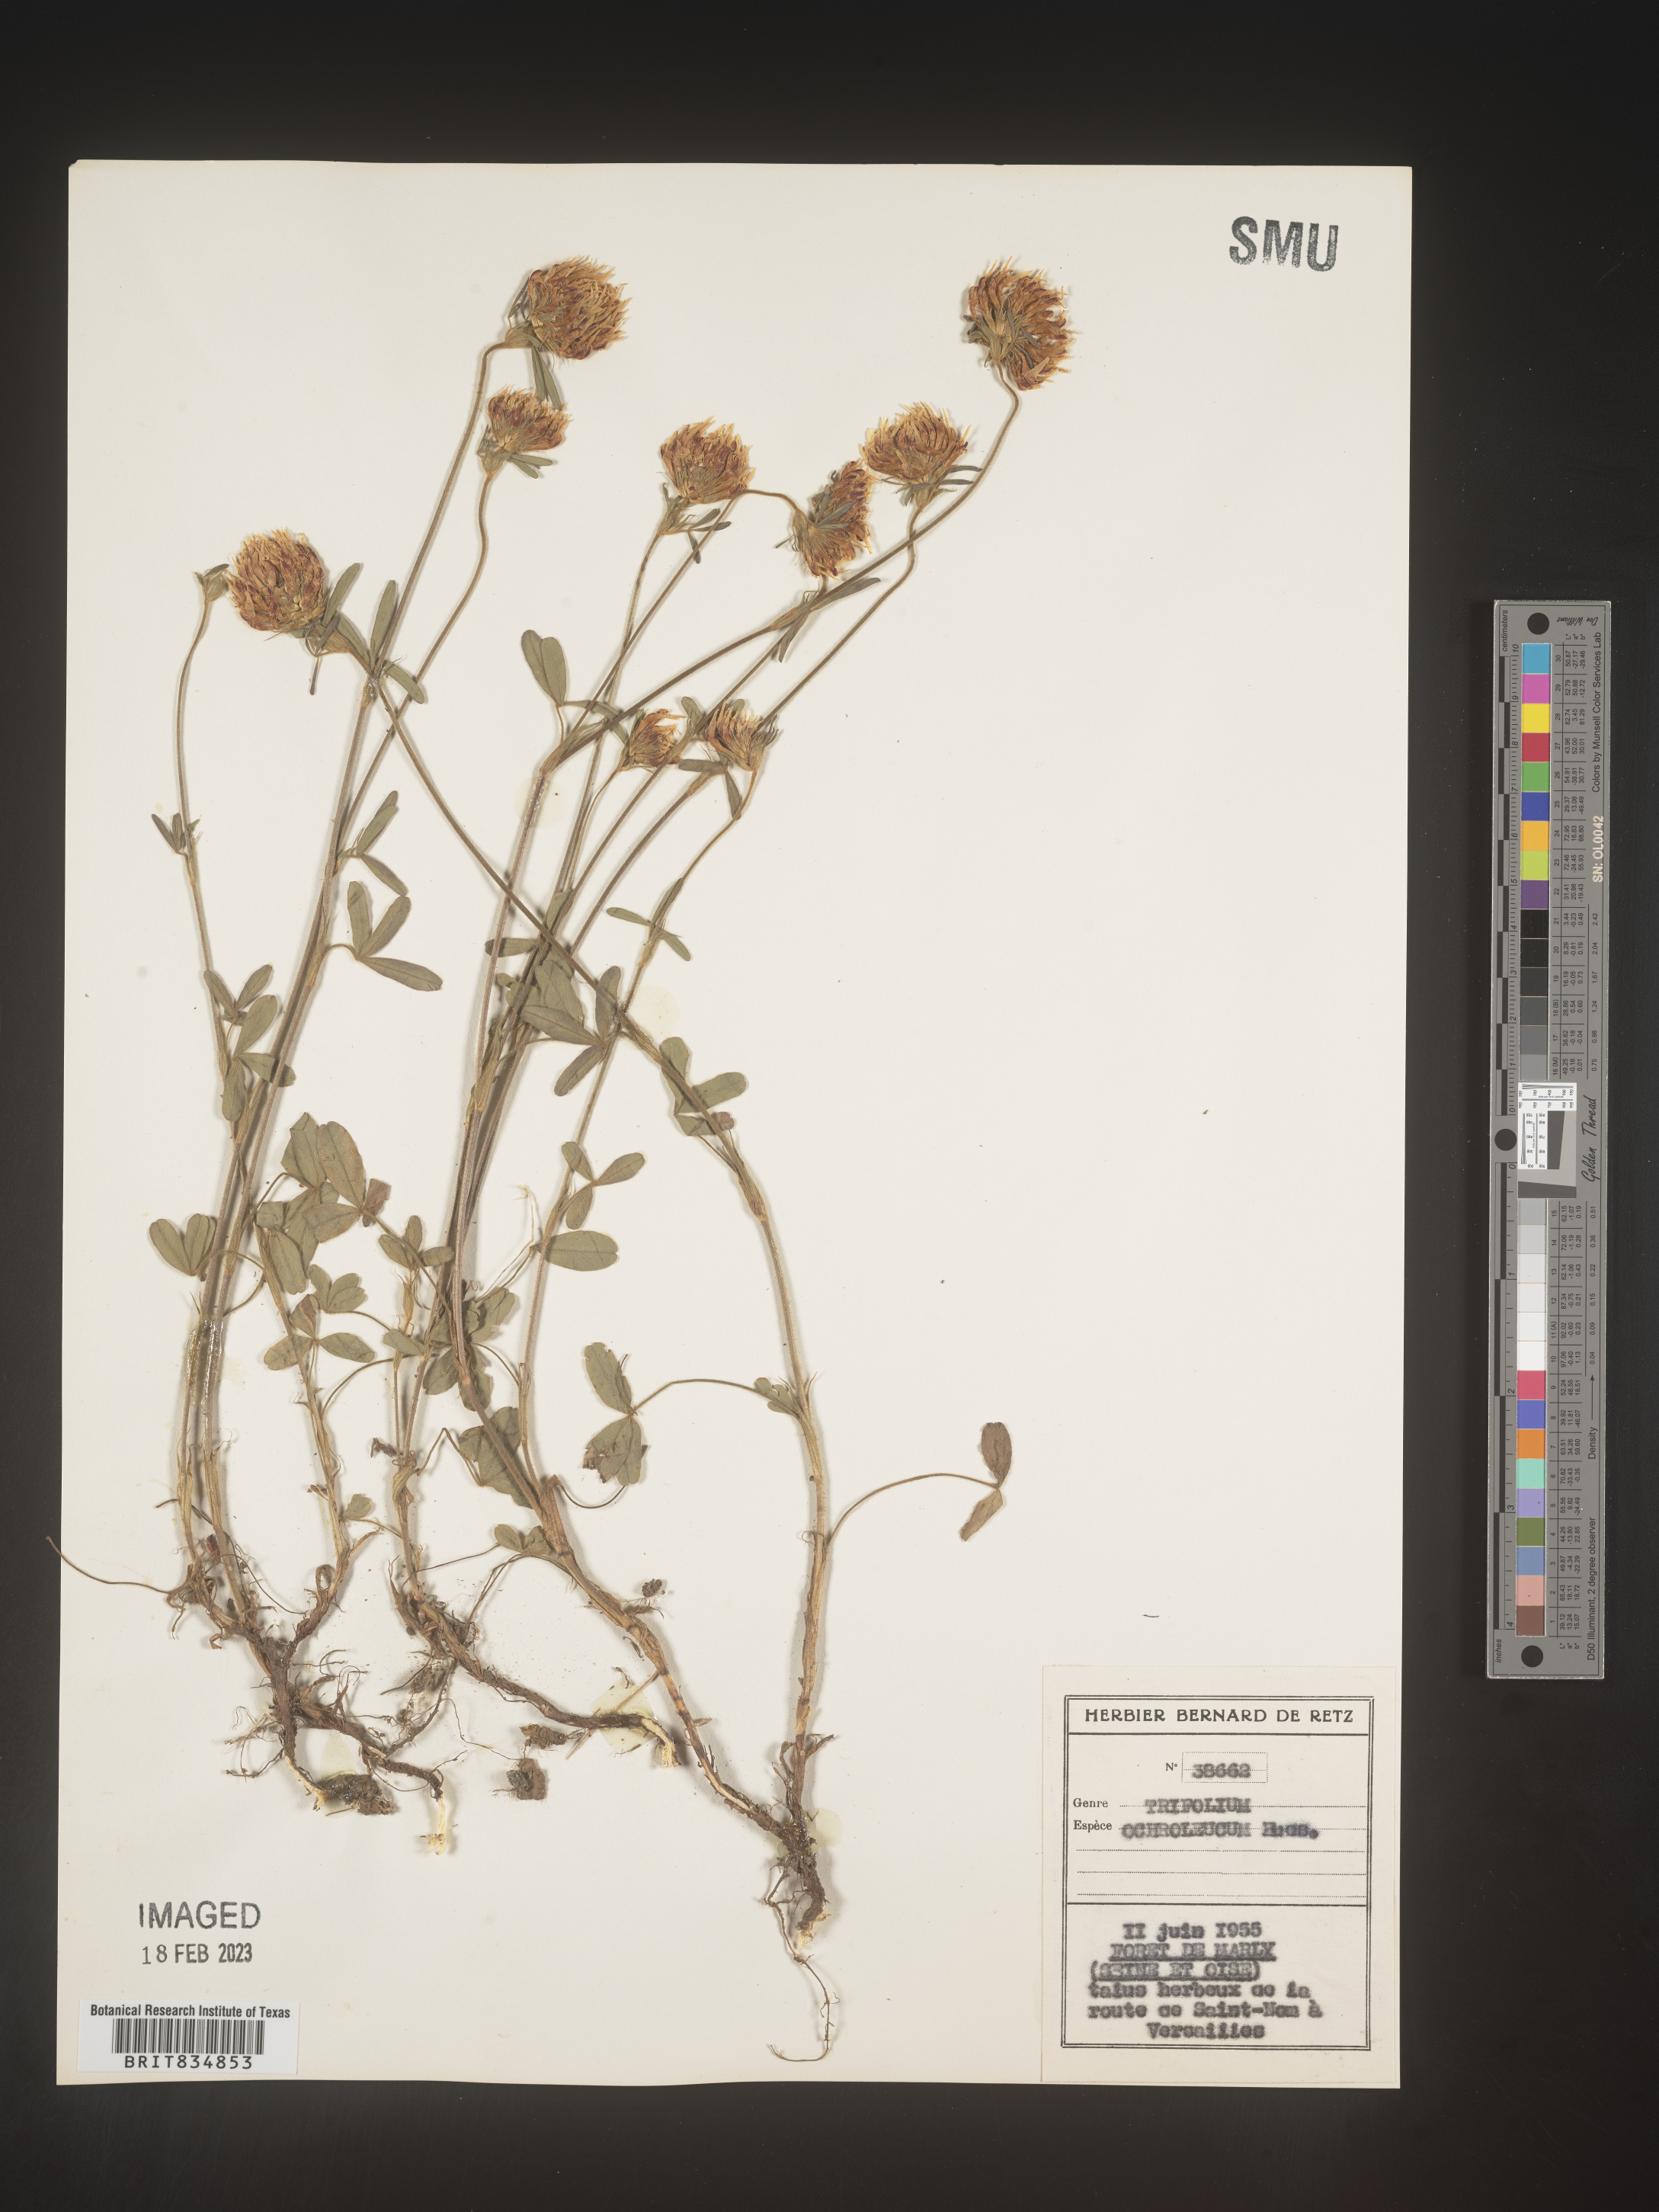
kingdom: Plantae
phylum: Tracheophyta
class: Magnoliopsida
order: Fabales
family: Fabaceae
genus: Trifolium
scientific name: Trifolium
